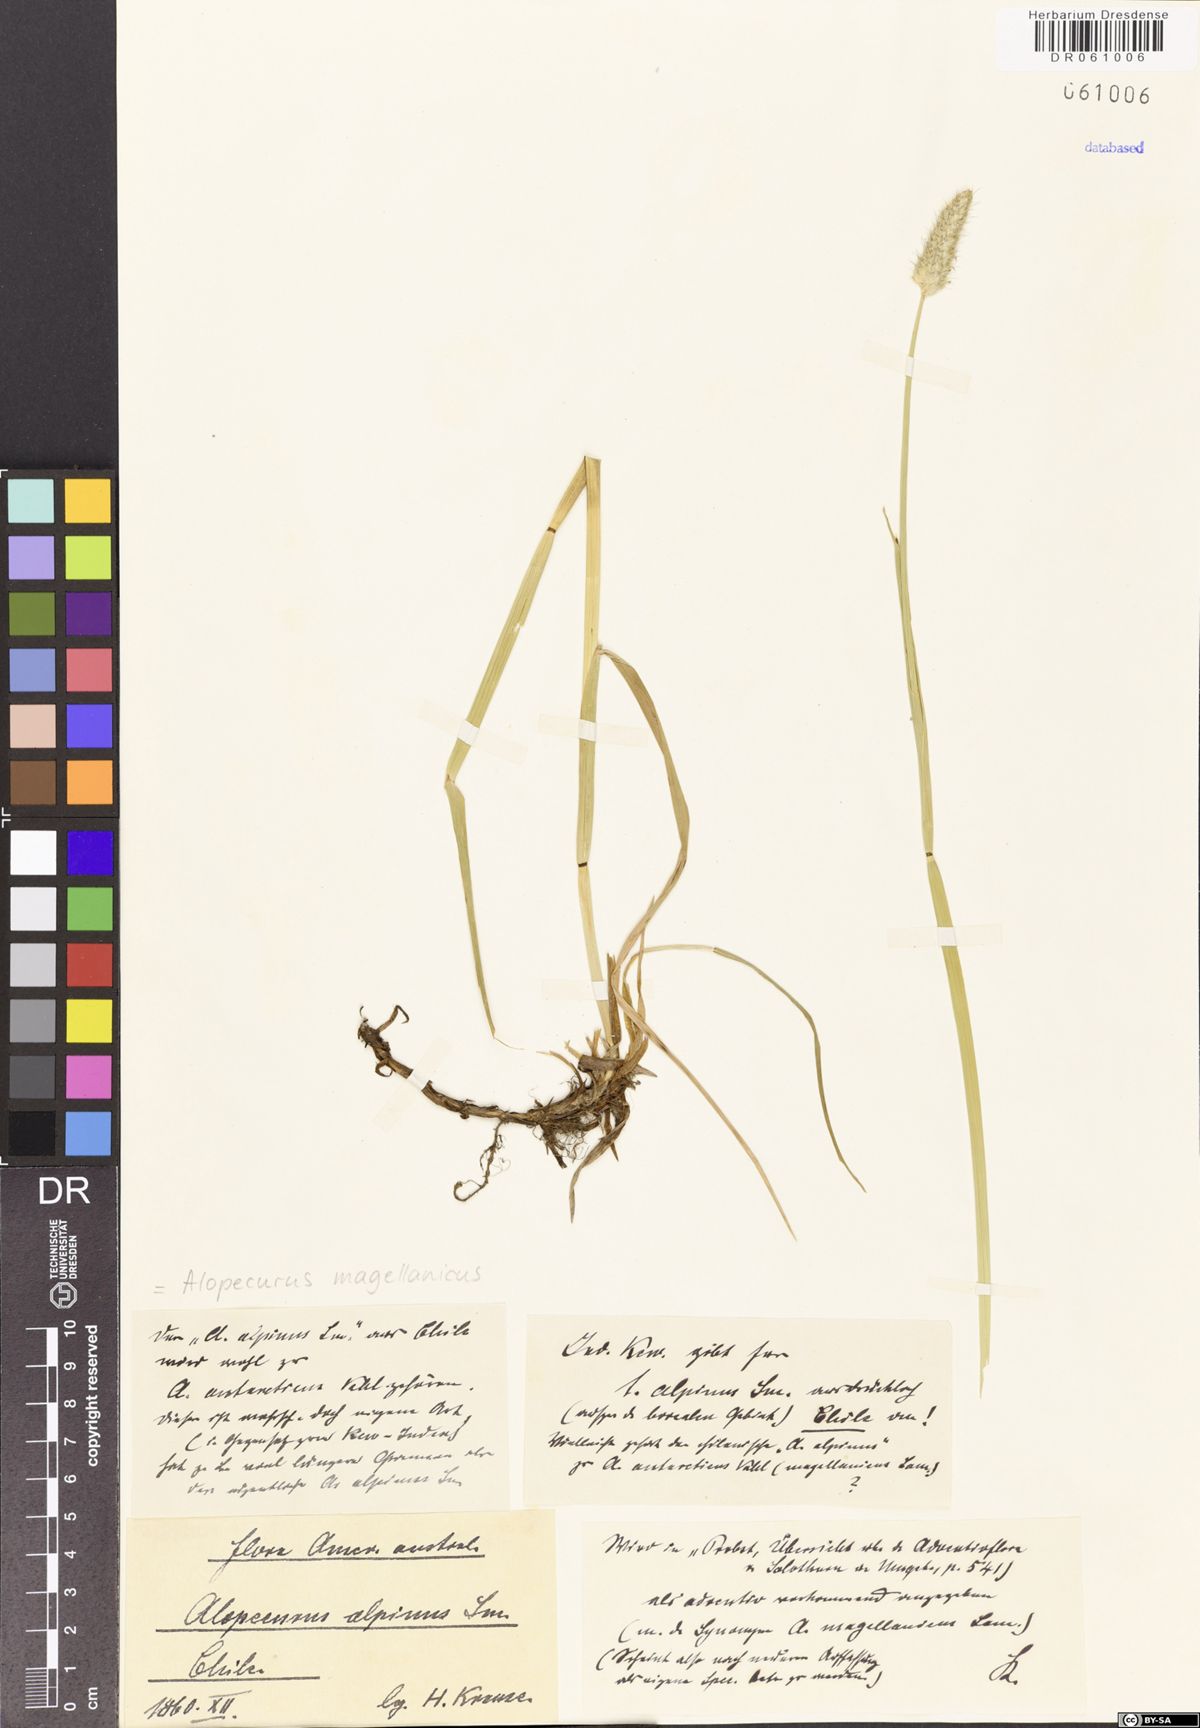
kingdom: Plantae
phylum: Tracheophyta
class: Liliopsida
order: Poales
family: Poaceae
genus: Alopecurus
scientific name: Alopecurus magellanicus
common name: Alpine foxtail
